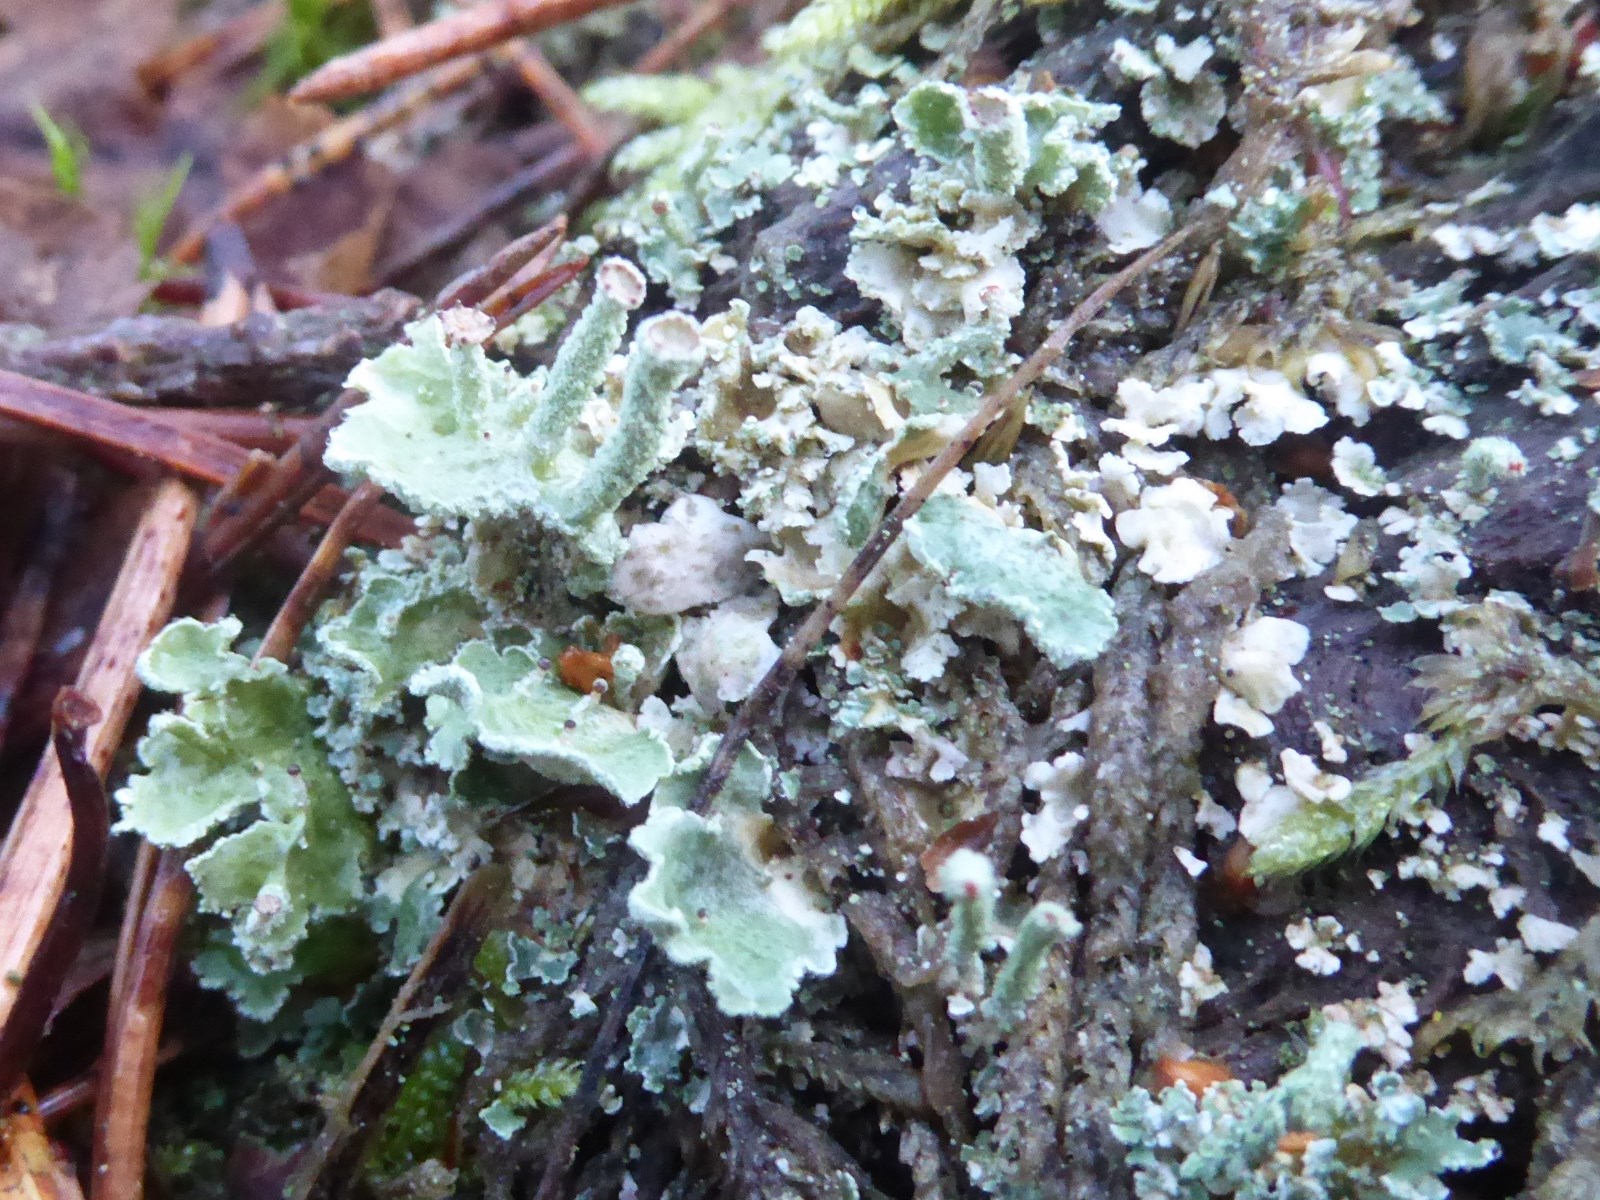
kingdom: Fungi
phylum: Ascomycota
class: Lecanoromycetes
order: Lecanorales
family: Cladoniaceae
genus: Cladonia
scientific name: Cladonia digitata
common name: finger-bægerlav
